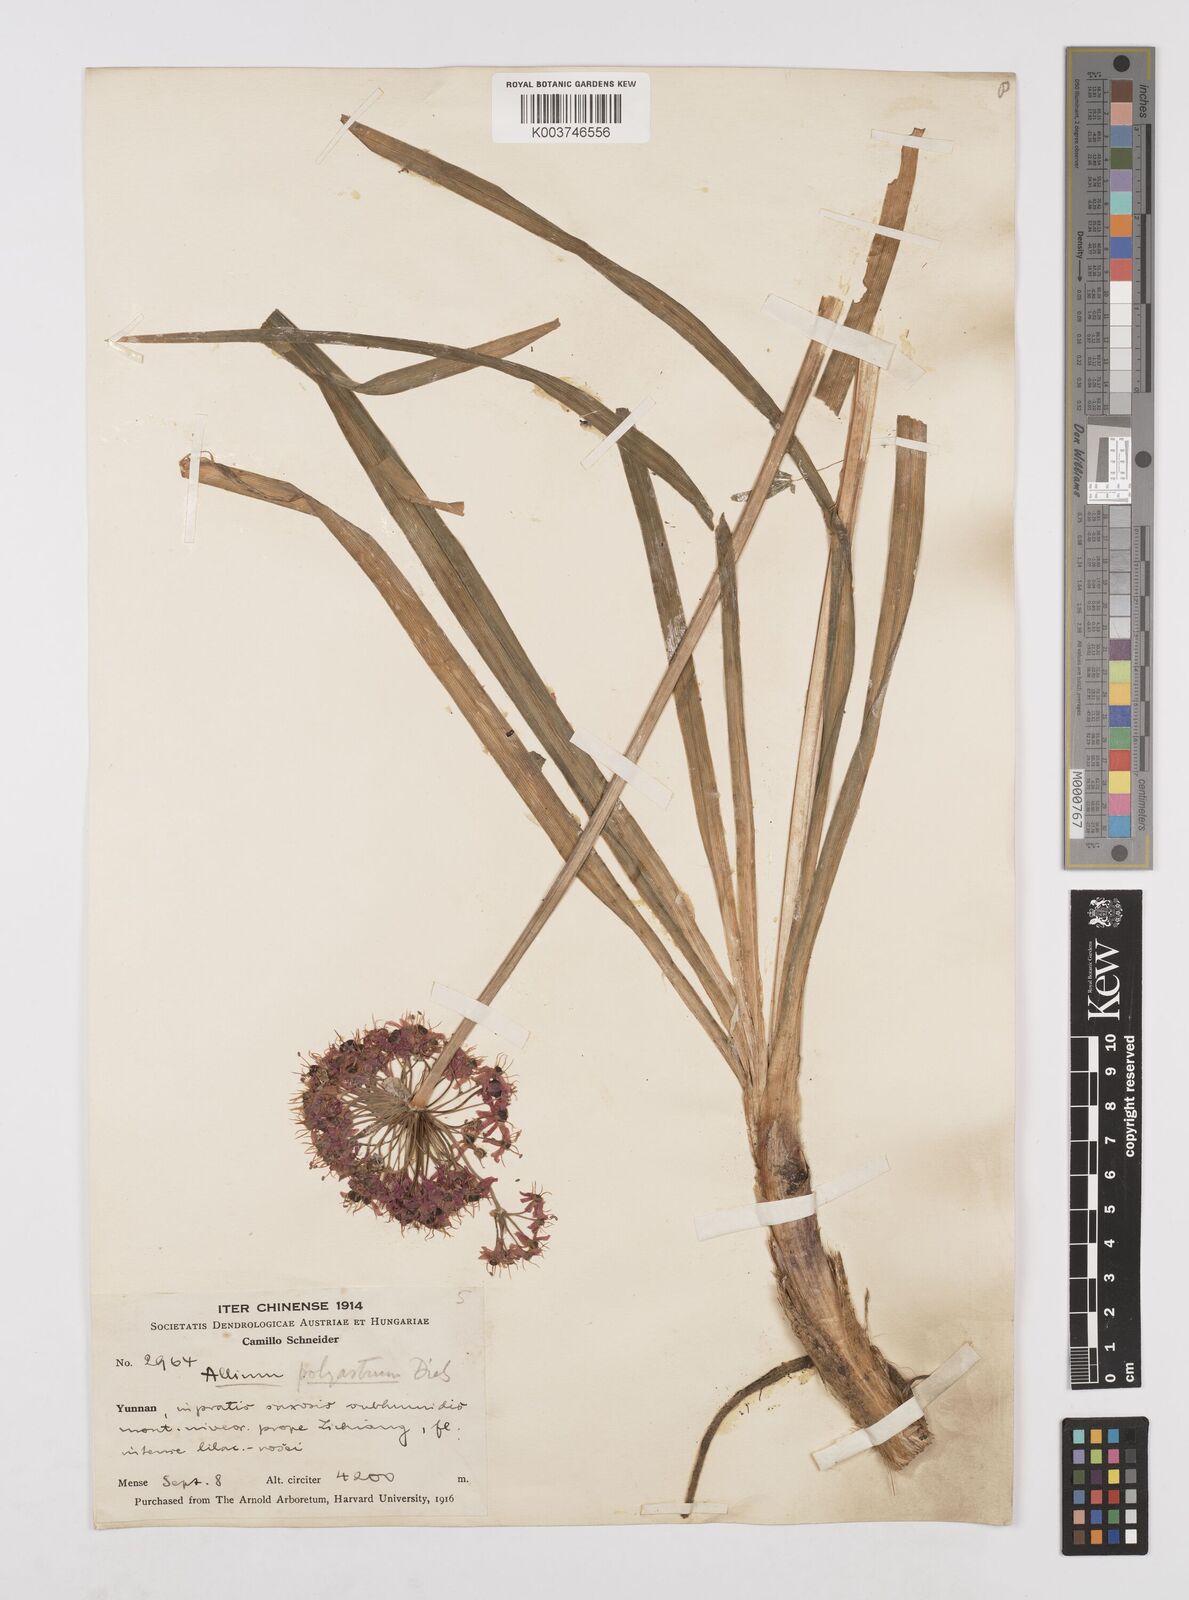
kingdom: Plantae
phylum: Tracheophyta
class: Liliopsida
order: Asparagales
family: Amaryllidaceae
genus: Allium
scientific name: Allium wallichii
